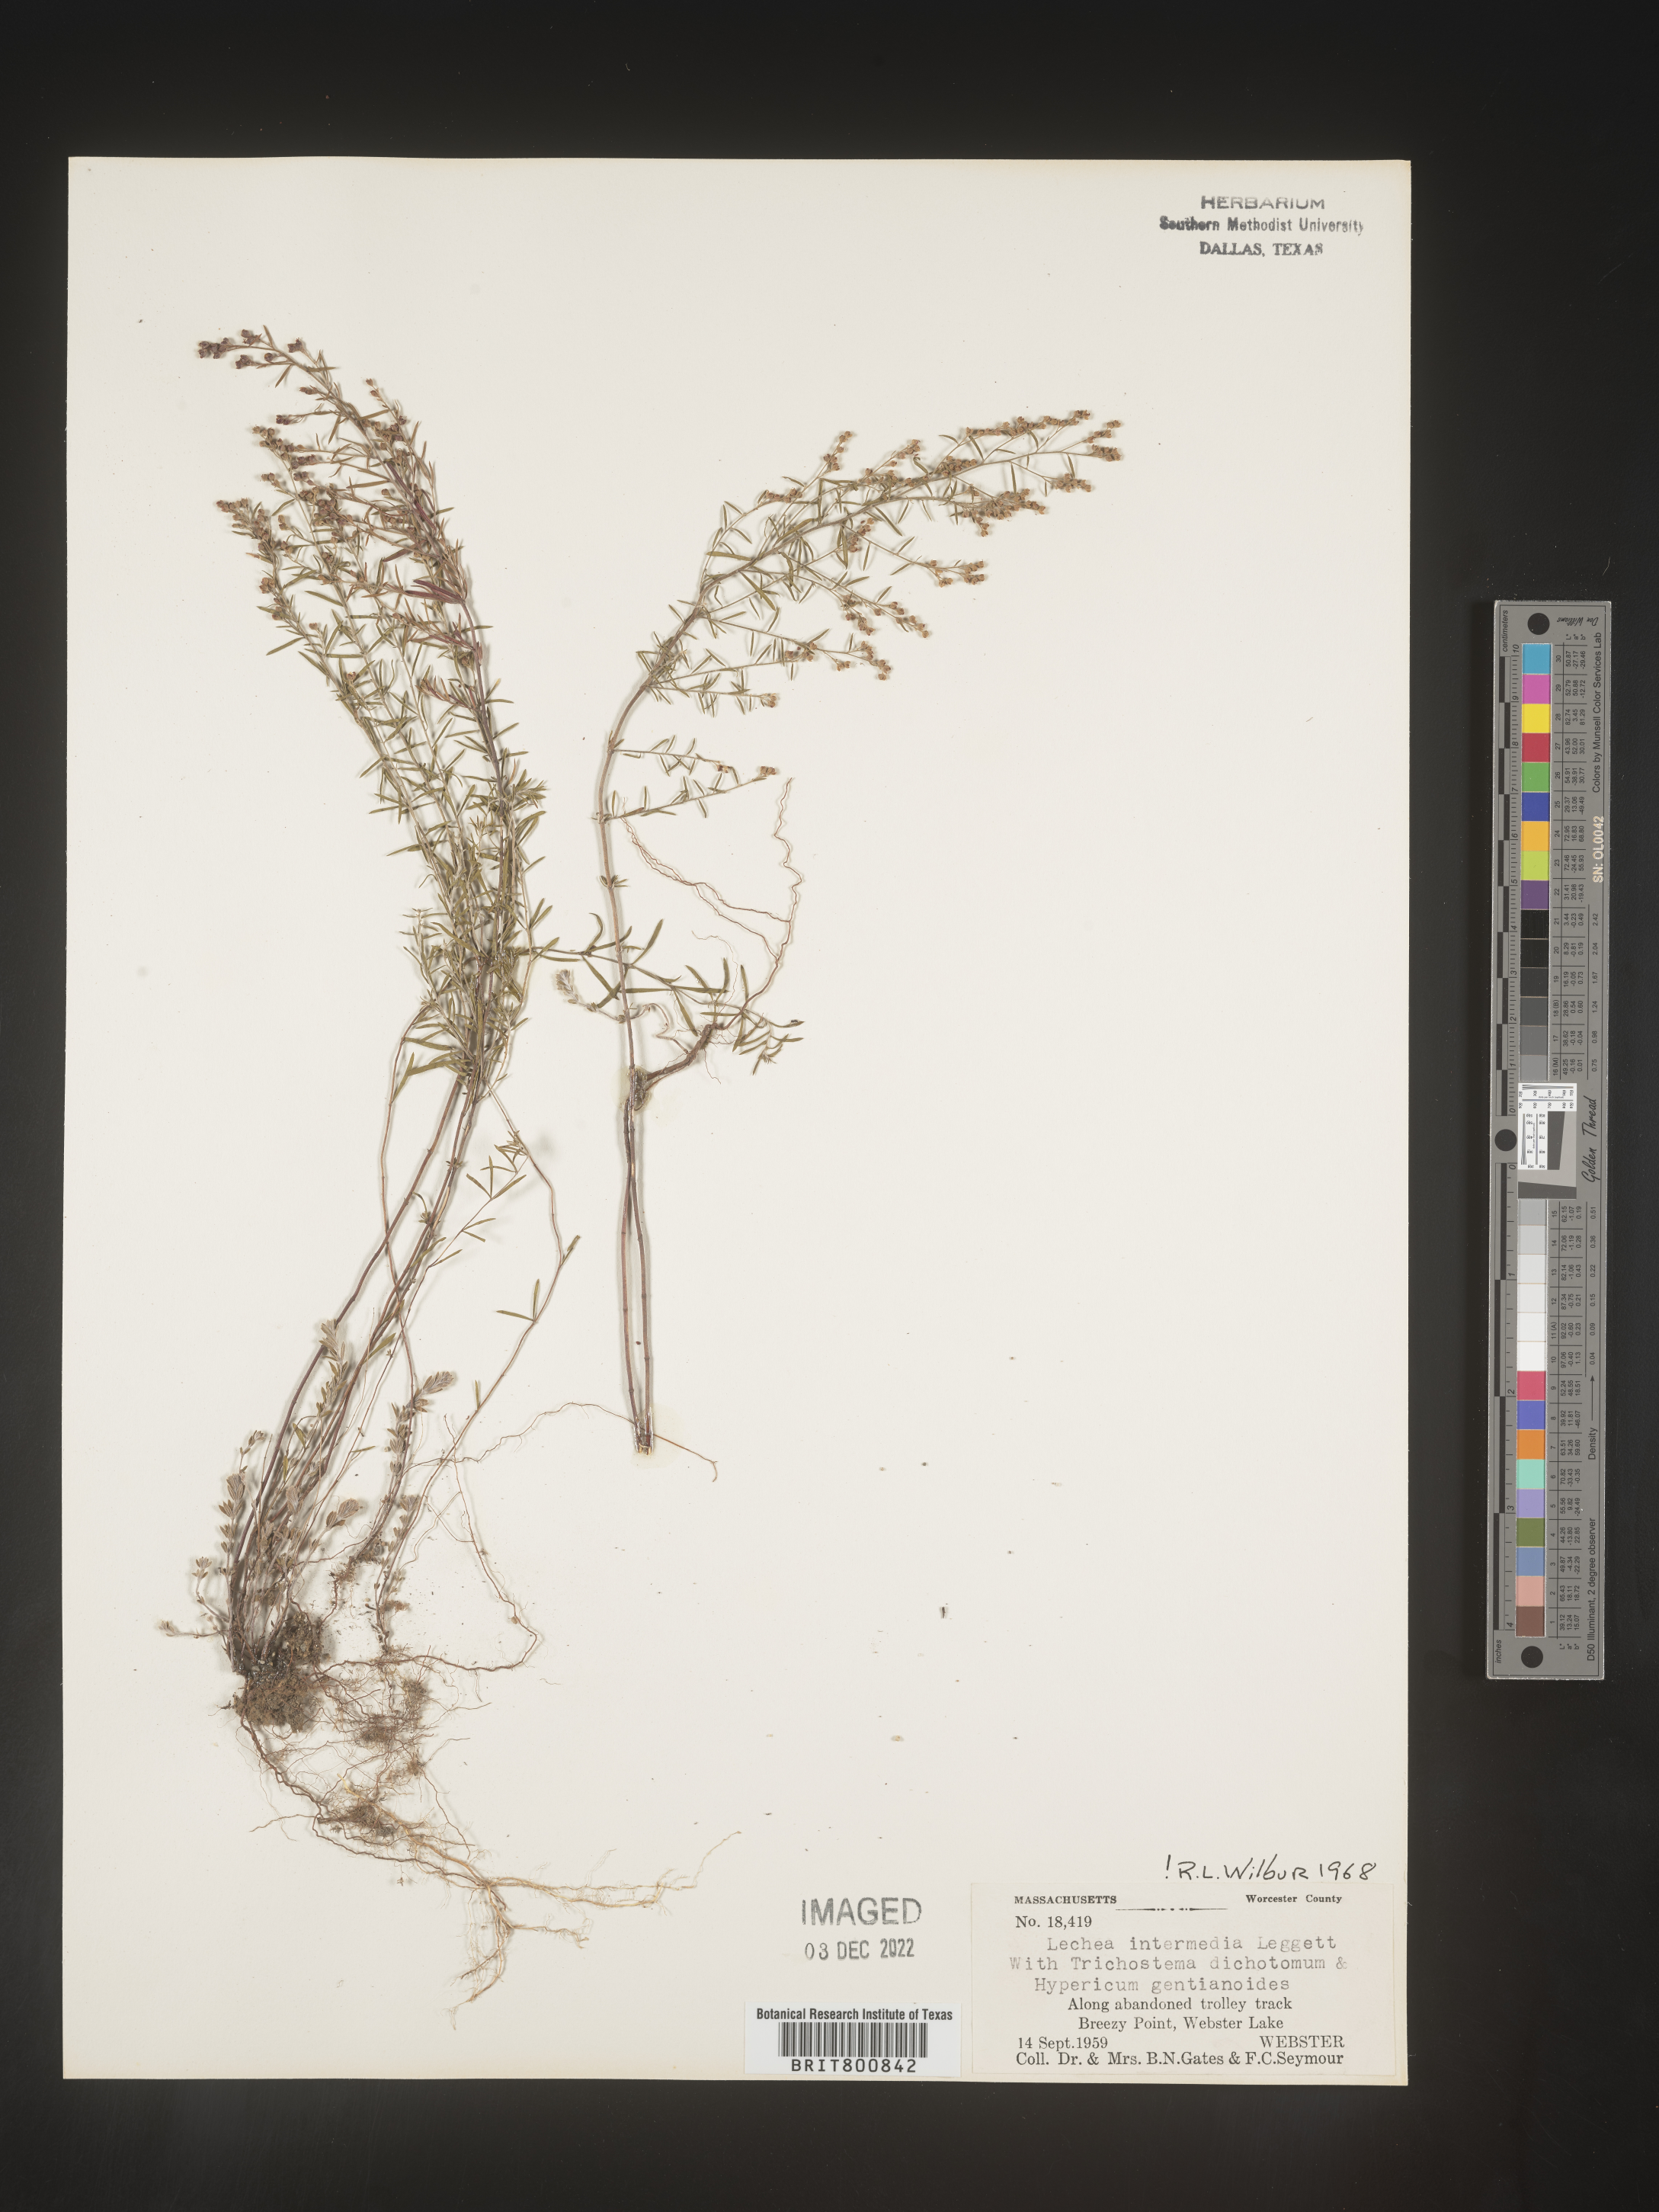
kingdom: Plantae
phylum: Tracheophyta
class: Magnoliopsida
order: Malvales
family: Cistaceae
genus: Lechea
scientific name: Lechea intermedia
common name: Intermediate pinweed
